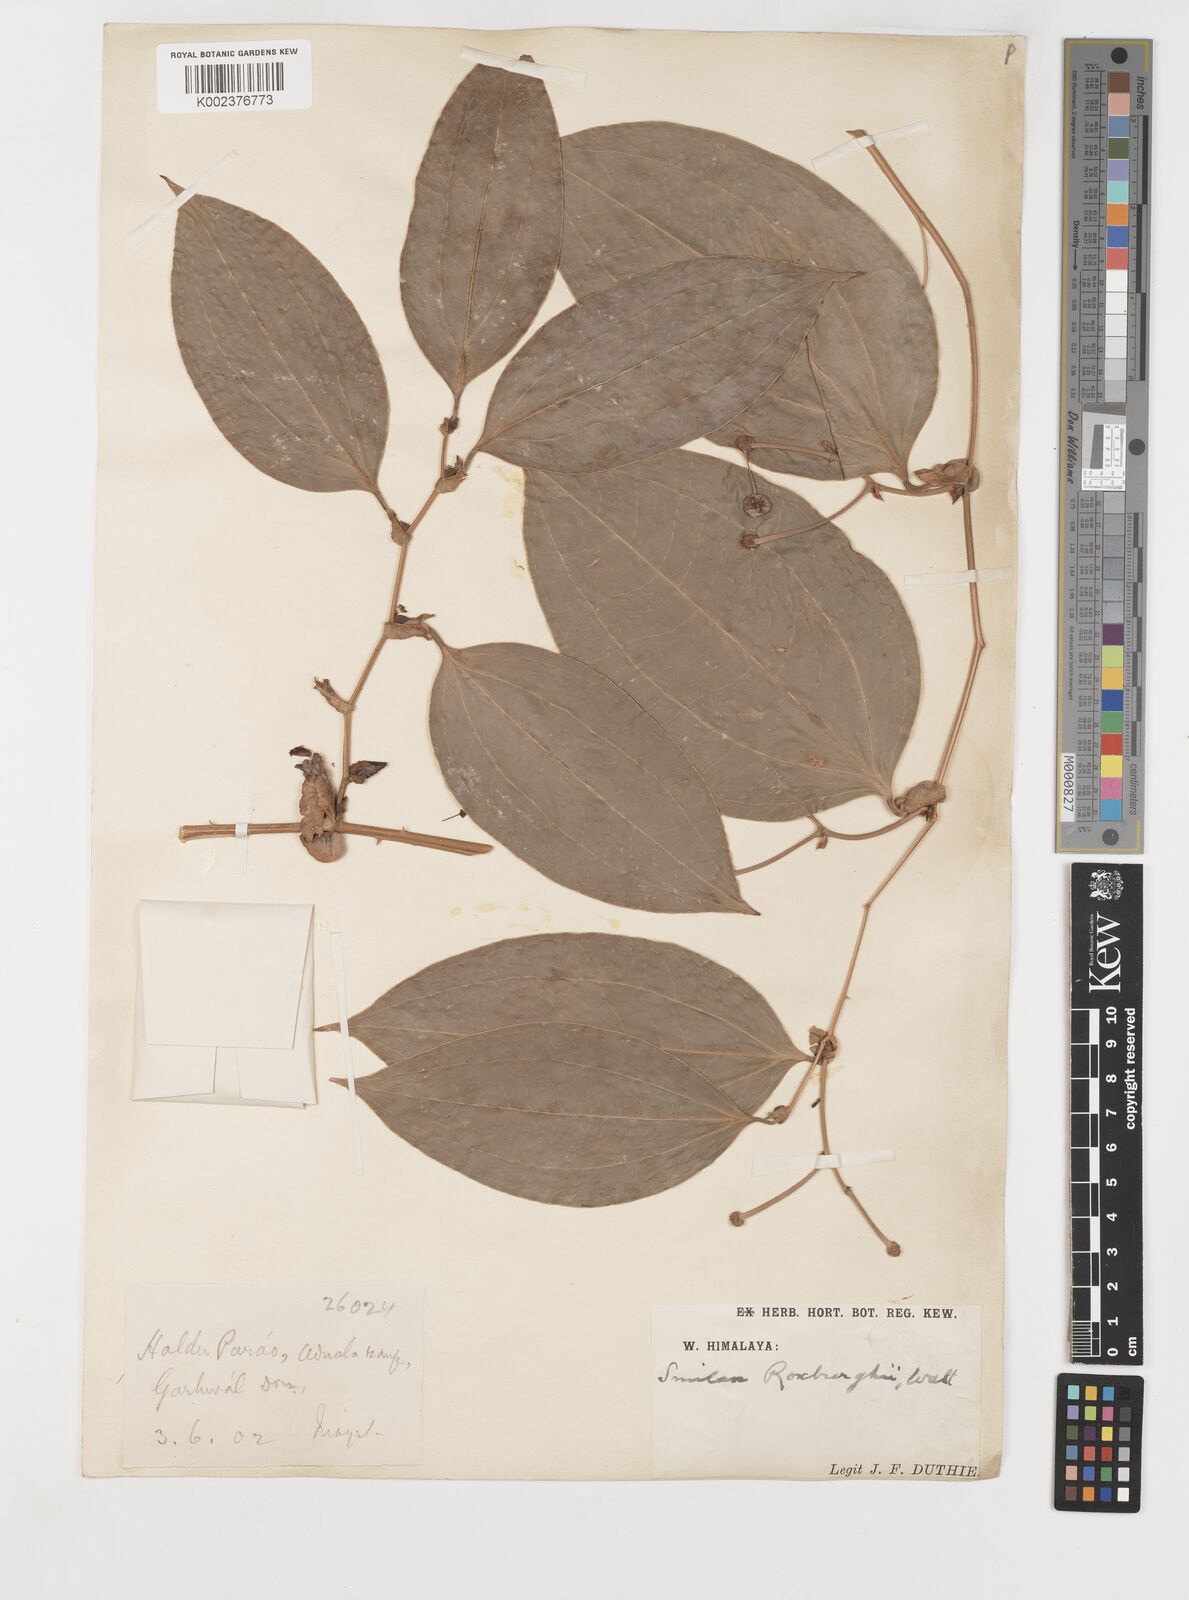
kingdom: Plantae
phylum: Tracheophyta
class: Liliopsida
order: Liliales
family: Smilacaceae
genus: Smilax
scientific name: Smilax ocreata
